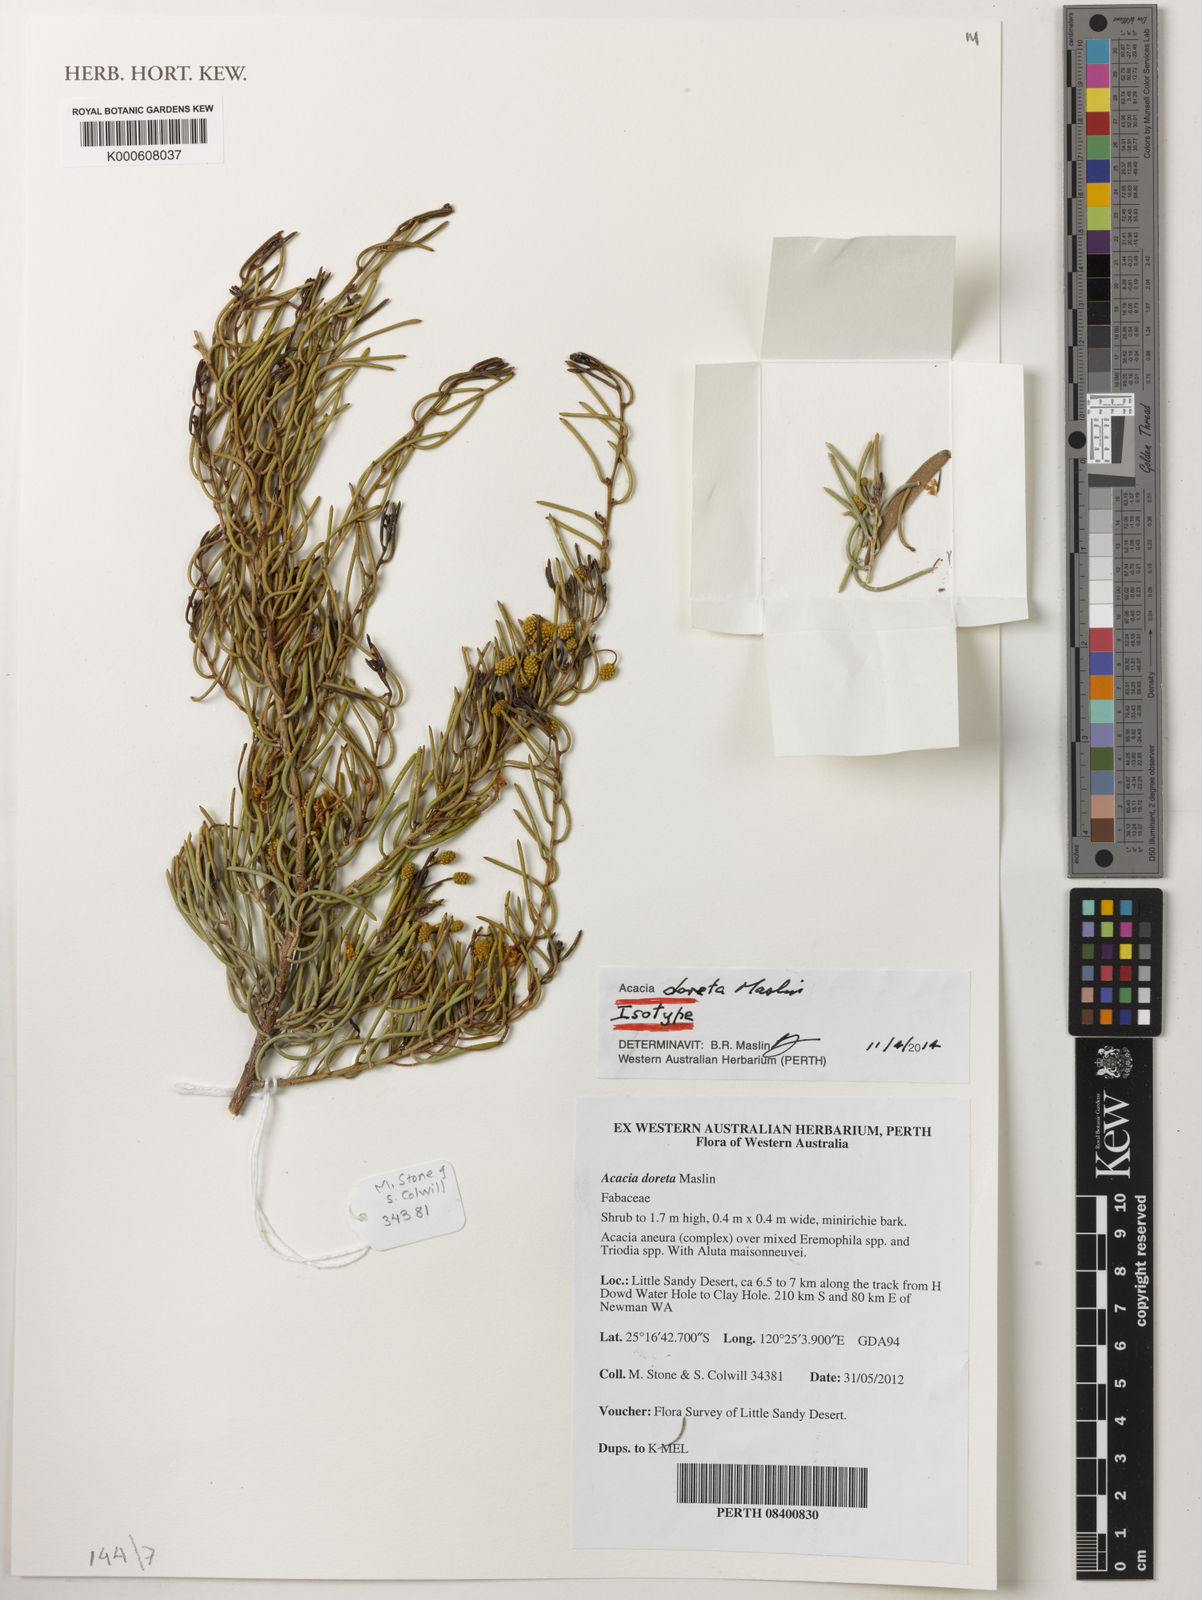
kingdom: Plantae
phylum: Tracheophyta
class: Magnoliopsida
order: Fabales
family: Fabaceae
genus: Acacia
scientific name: Acacia doreta
